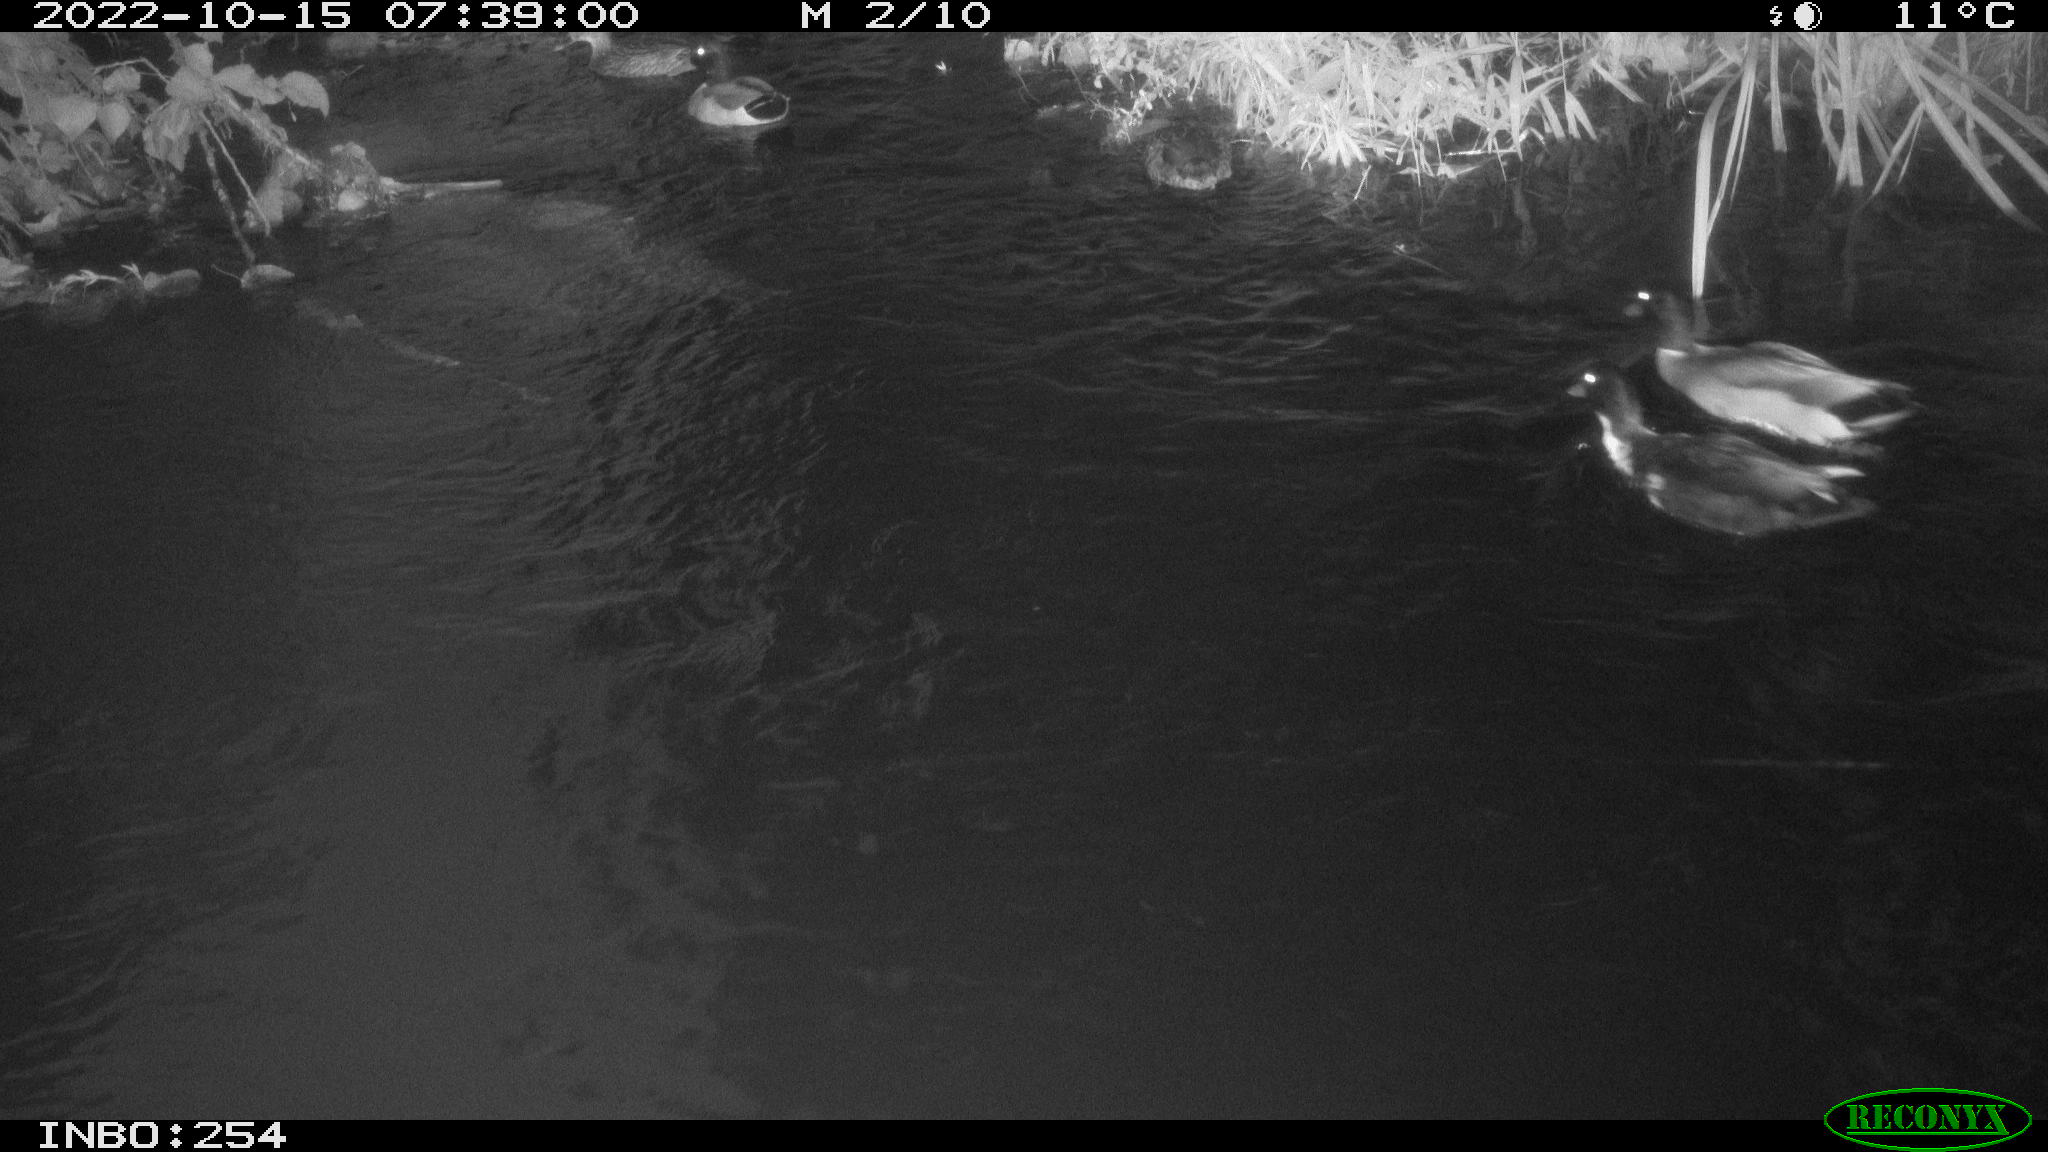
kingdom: Animalia
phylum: Chordata
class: Aves
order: Anseriformes
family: Anatidae
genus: Anas
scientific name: Anas
